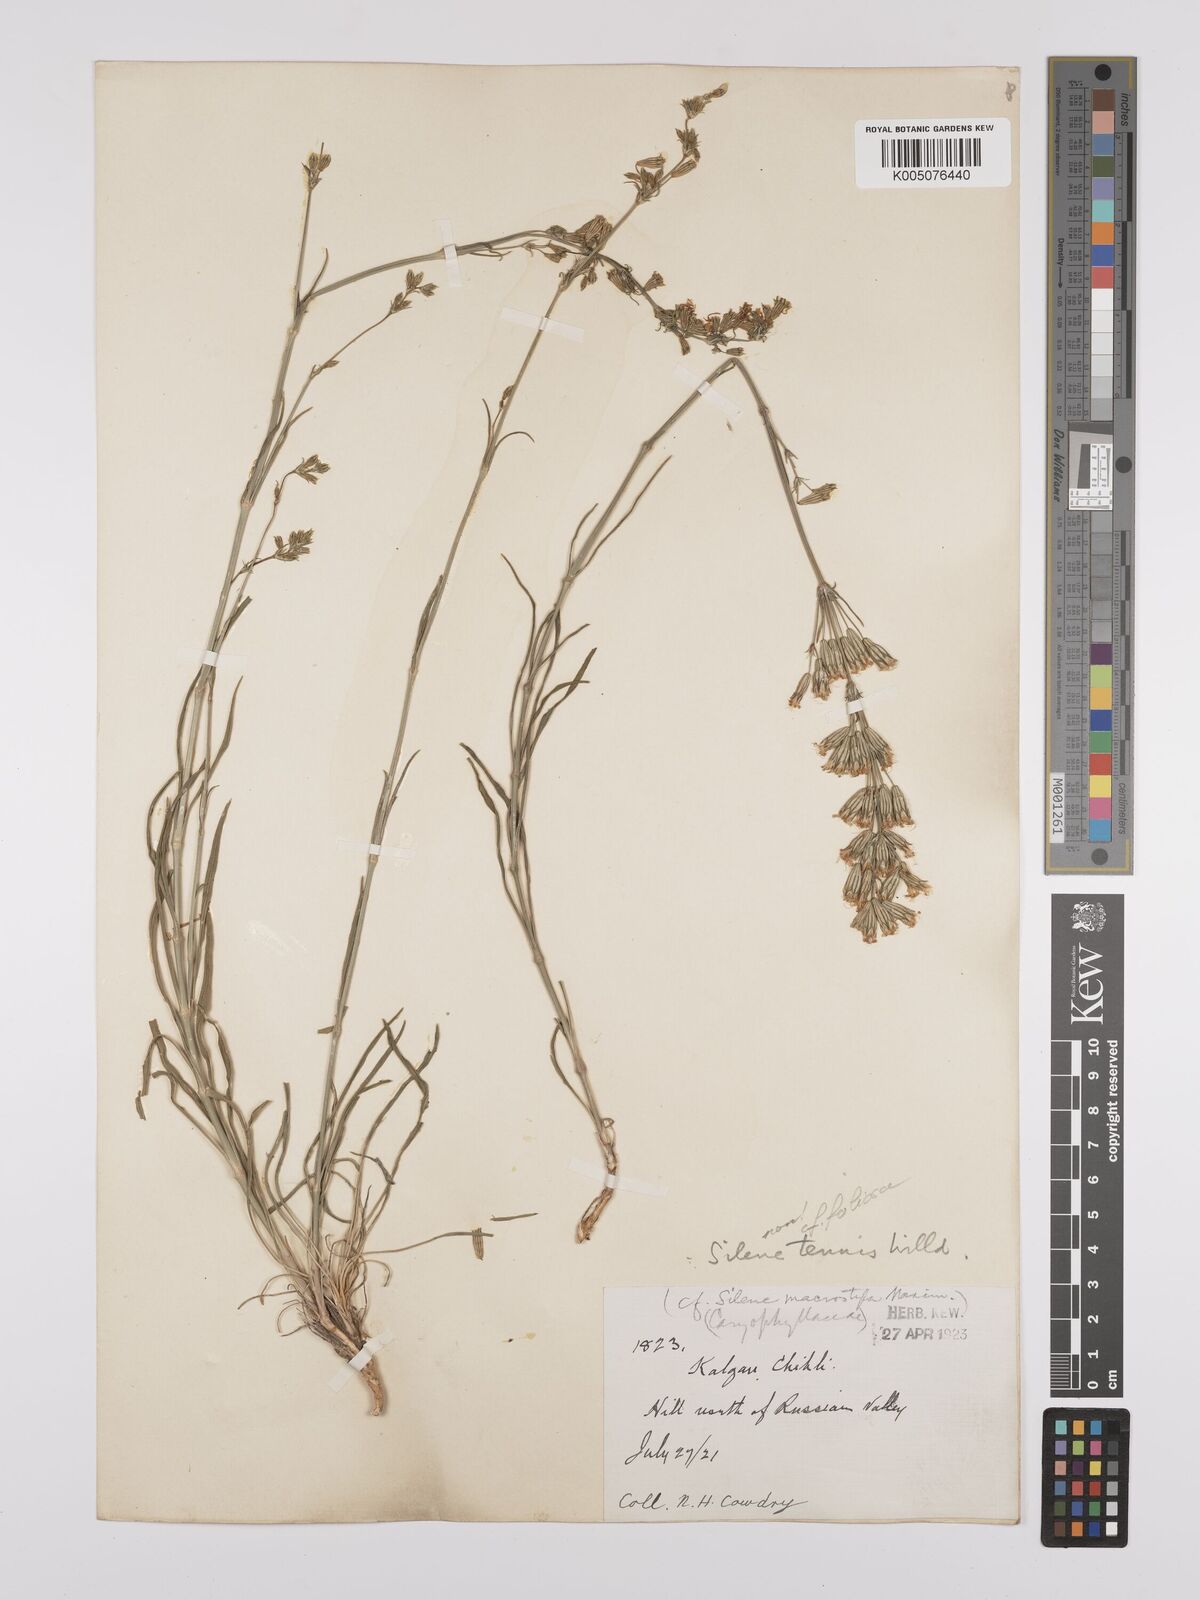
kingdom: Plantae
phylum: Tracheophyta
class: Magnoliopsida
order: Caryophyllales
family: Caryophyllaceae
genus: Silene
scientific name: Silene
